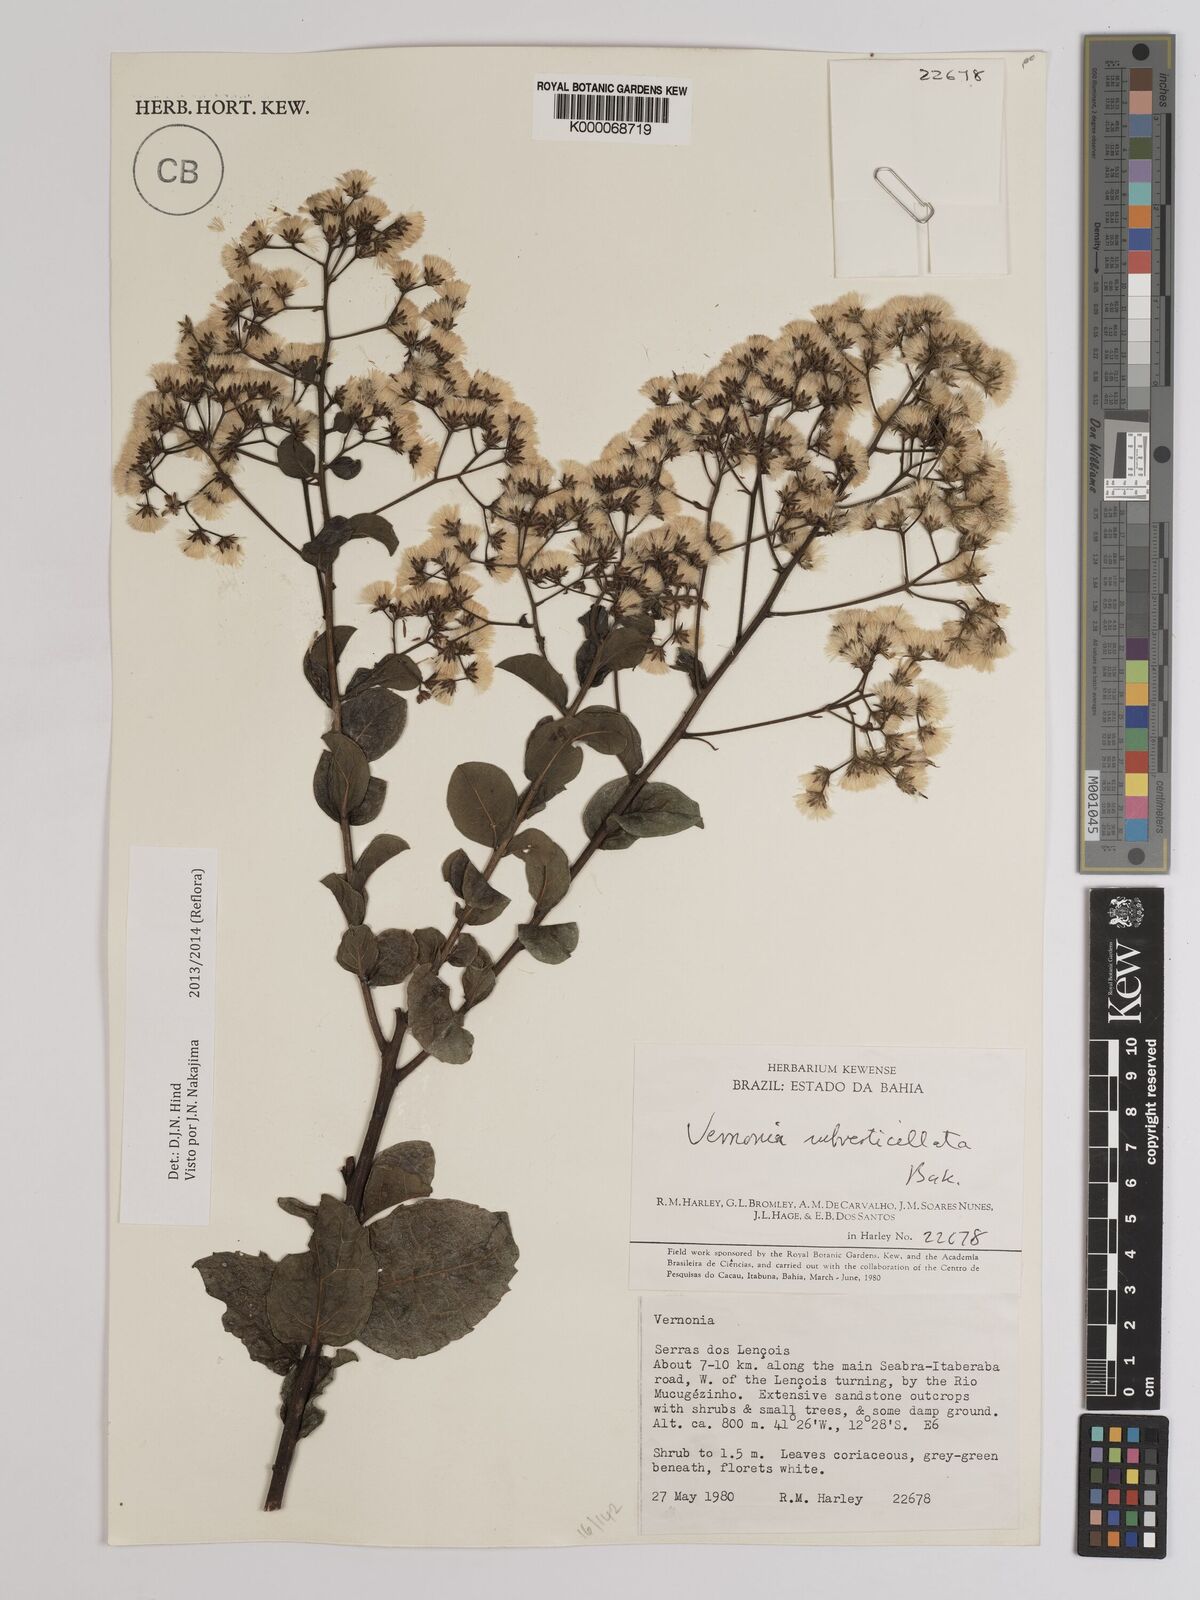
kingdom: Plantae
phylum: Tracheophyta
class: Magnoliopsida
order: Asterales
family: Asteraceae
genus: Vernonia
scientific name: Vernonia
